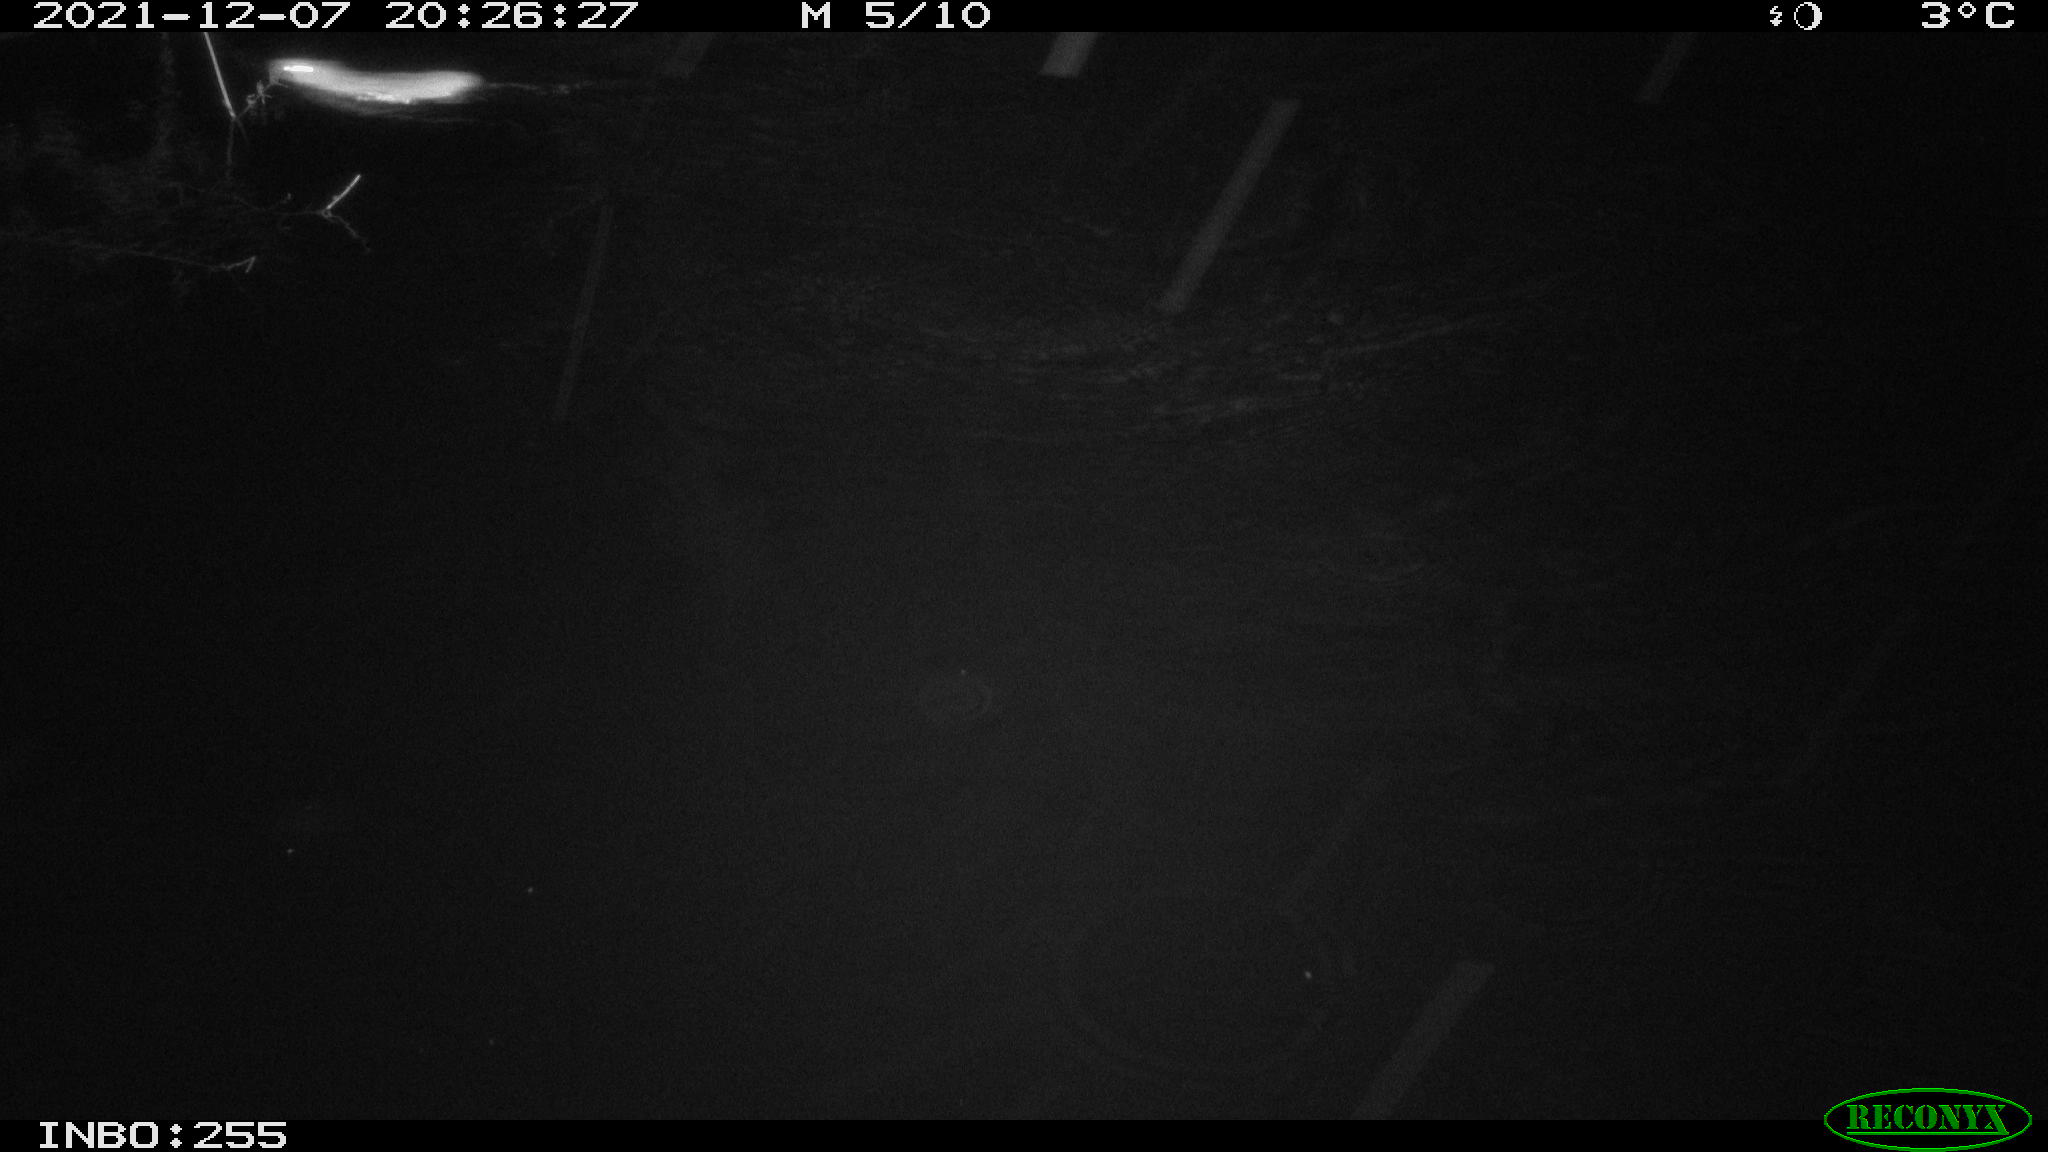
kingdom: Animalia
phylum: Chordata
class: Mammalia
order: Rodentia
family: Muridae
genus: Rattus
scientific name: Rattus norvegicus
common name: Brown rat
